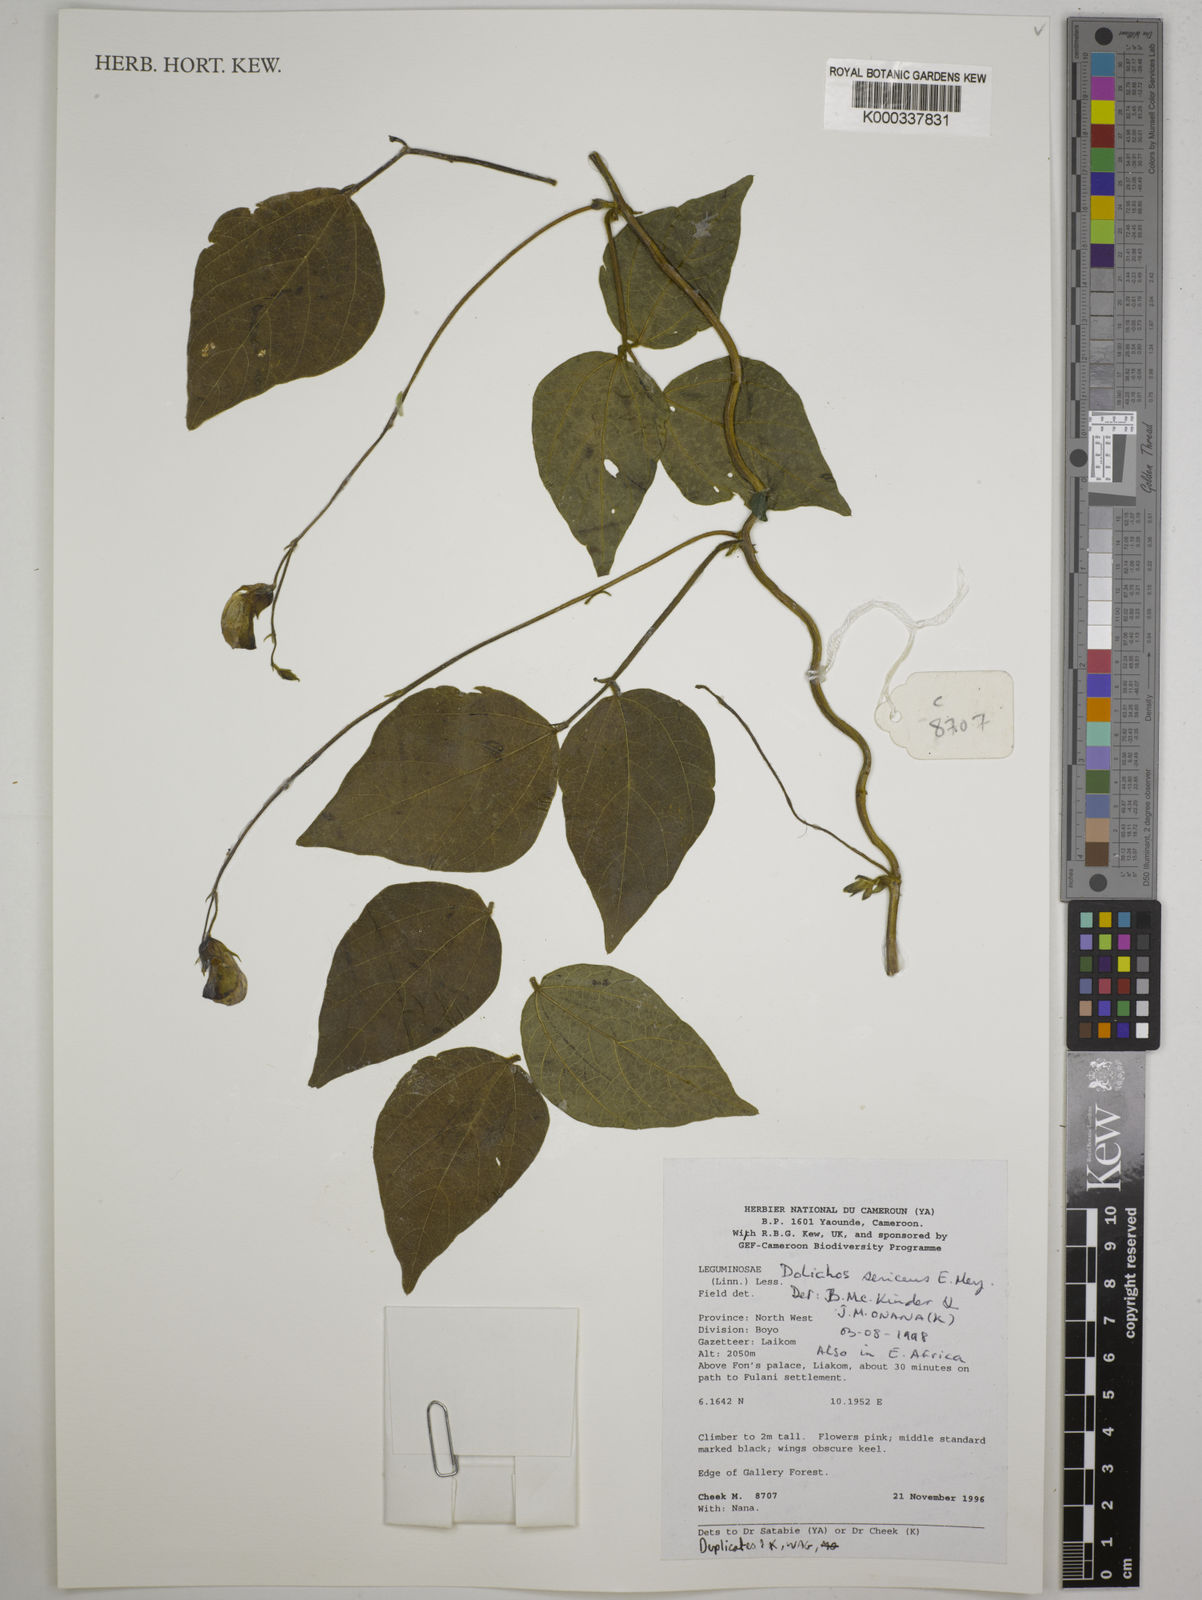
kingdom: Plantae
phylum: Tracheophyta
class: Magnoliopsida
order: Fabales
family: Fabaceae
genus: Dolichos
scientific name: Dolichos sericeus
